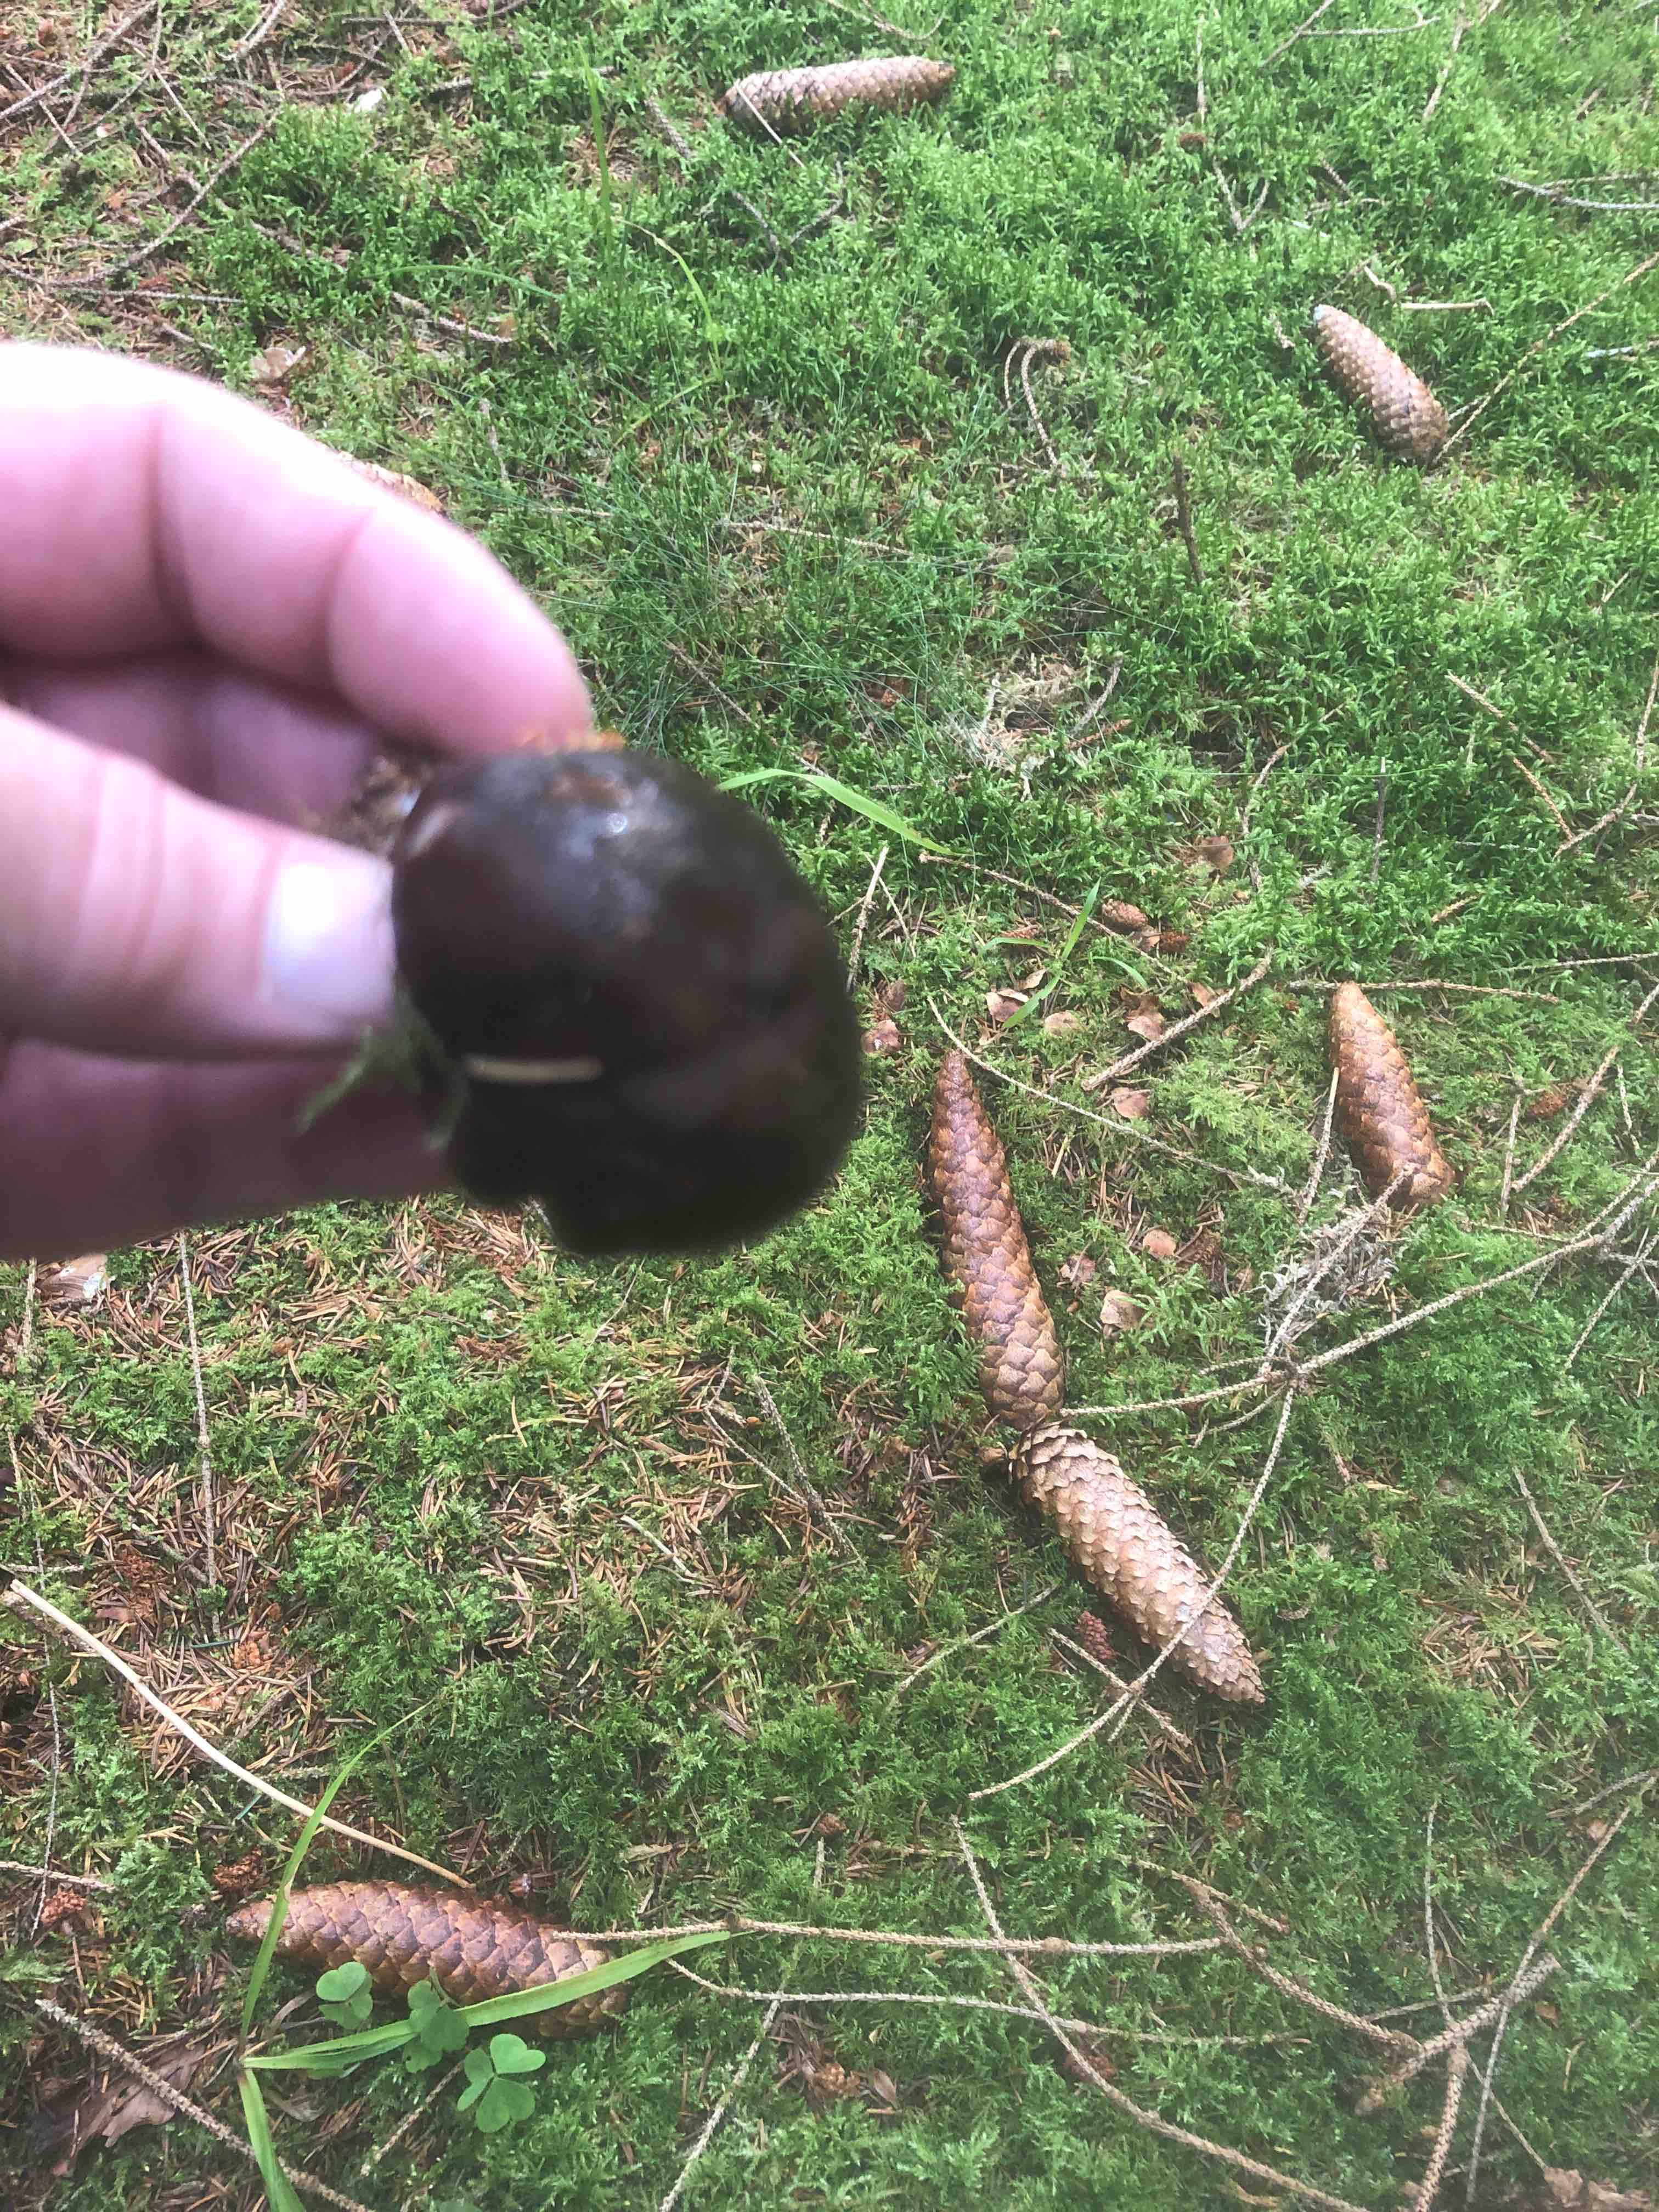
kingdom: Fungi
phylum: Basidiomycota
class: Agaricomycetes
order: Agaricales
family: Pluteaceae
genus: Pluteus
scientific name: Pluteus
